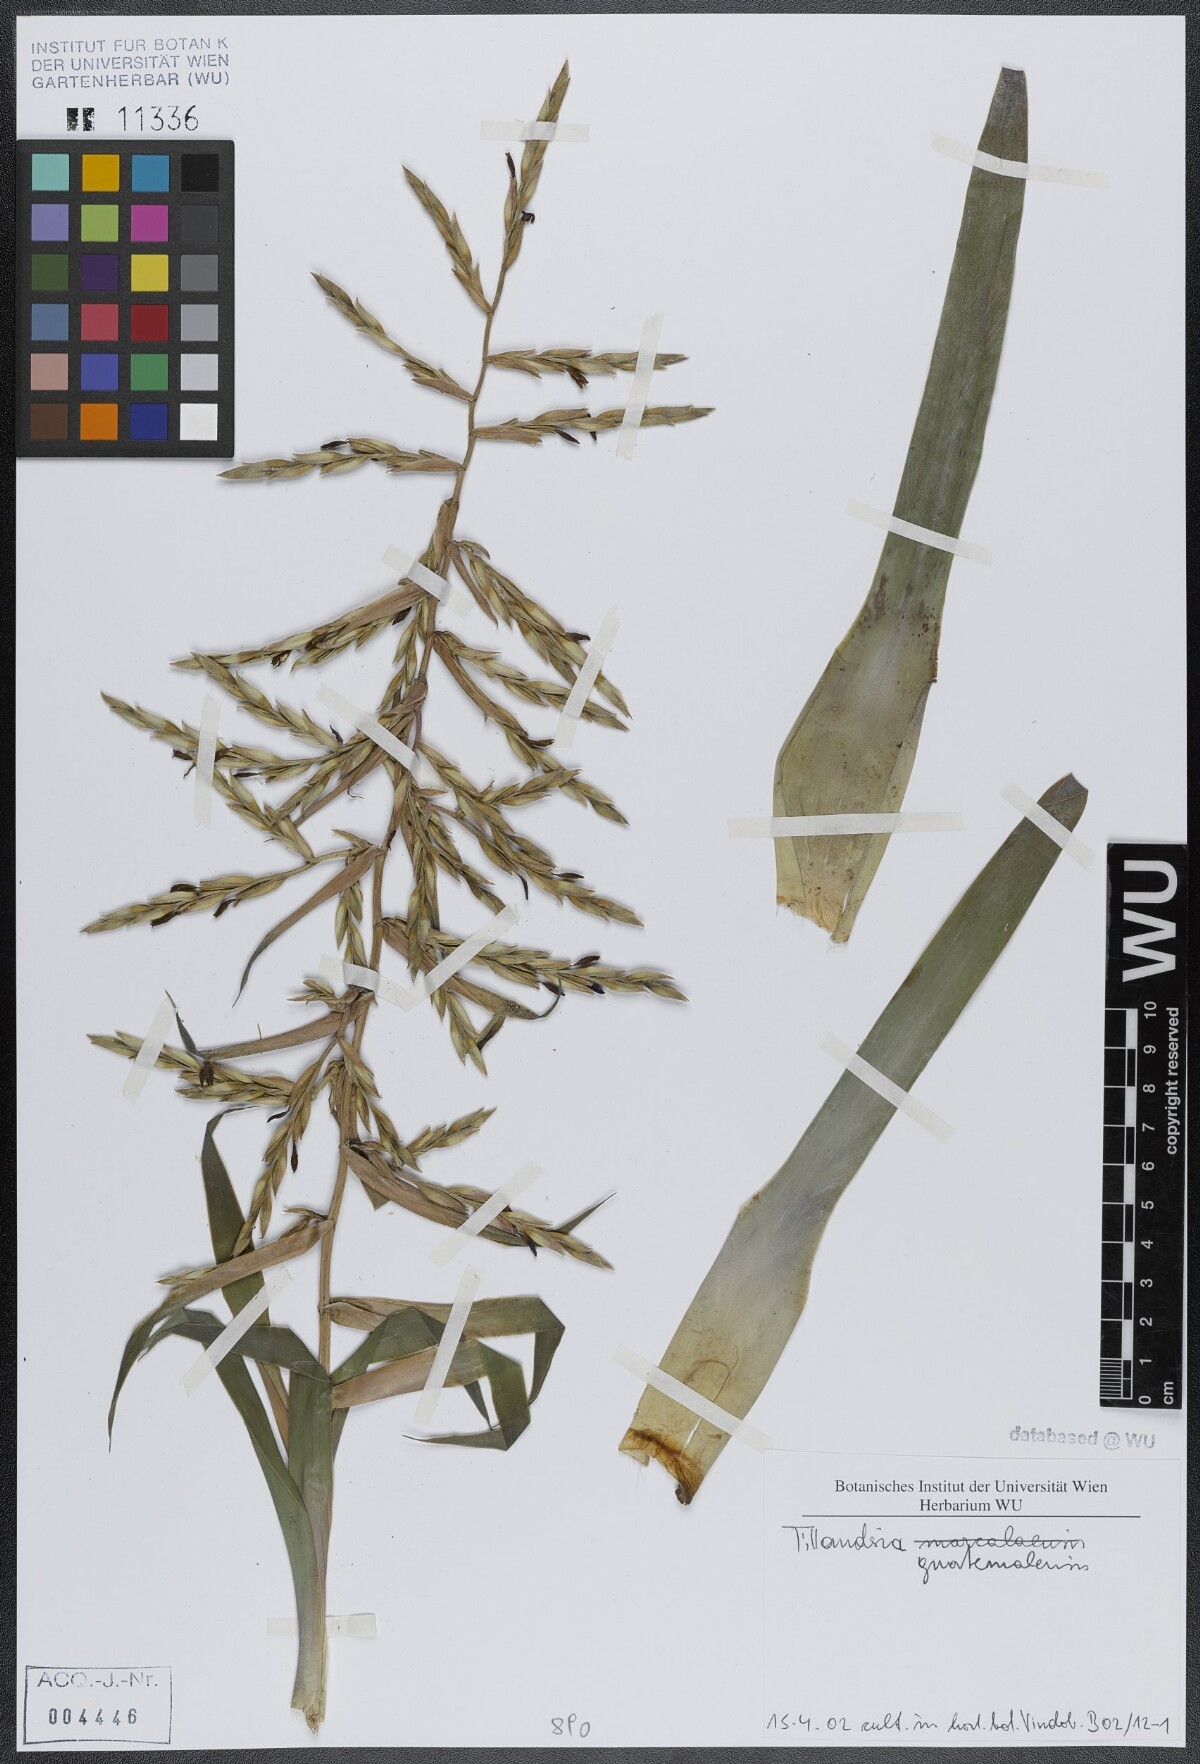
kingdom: Plantae
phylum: Tracheophyta
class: Liliopsida
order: Poales
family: Bromeliaceae
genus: Tillandsia
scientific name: Tillandsia guatemalensis
